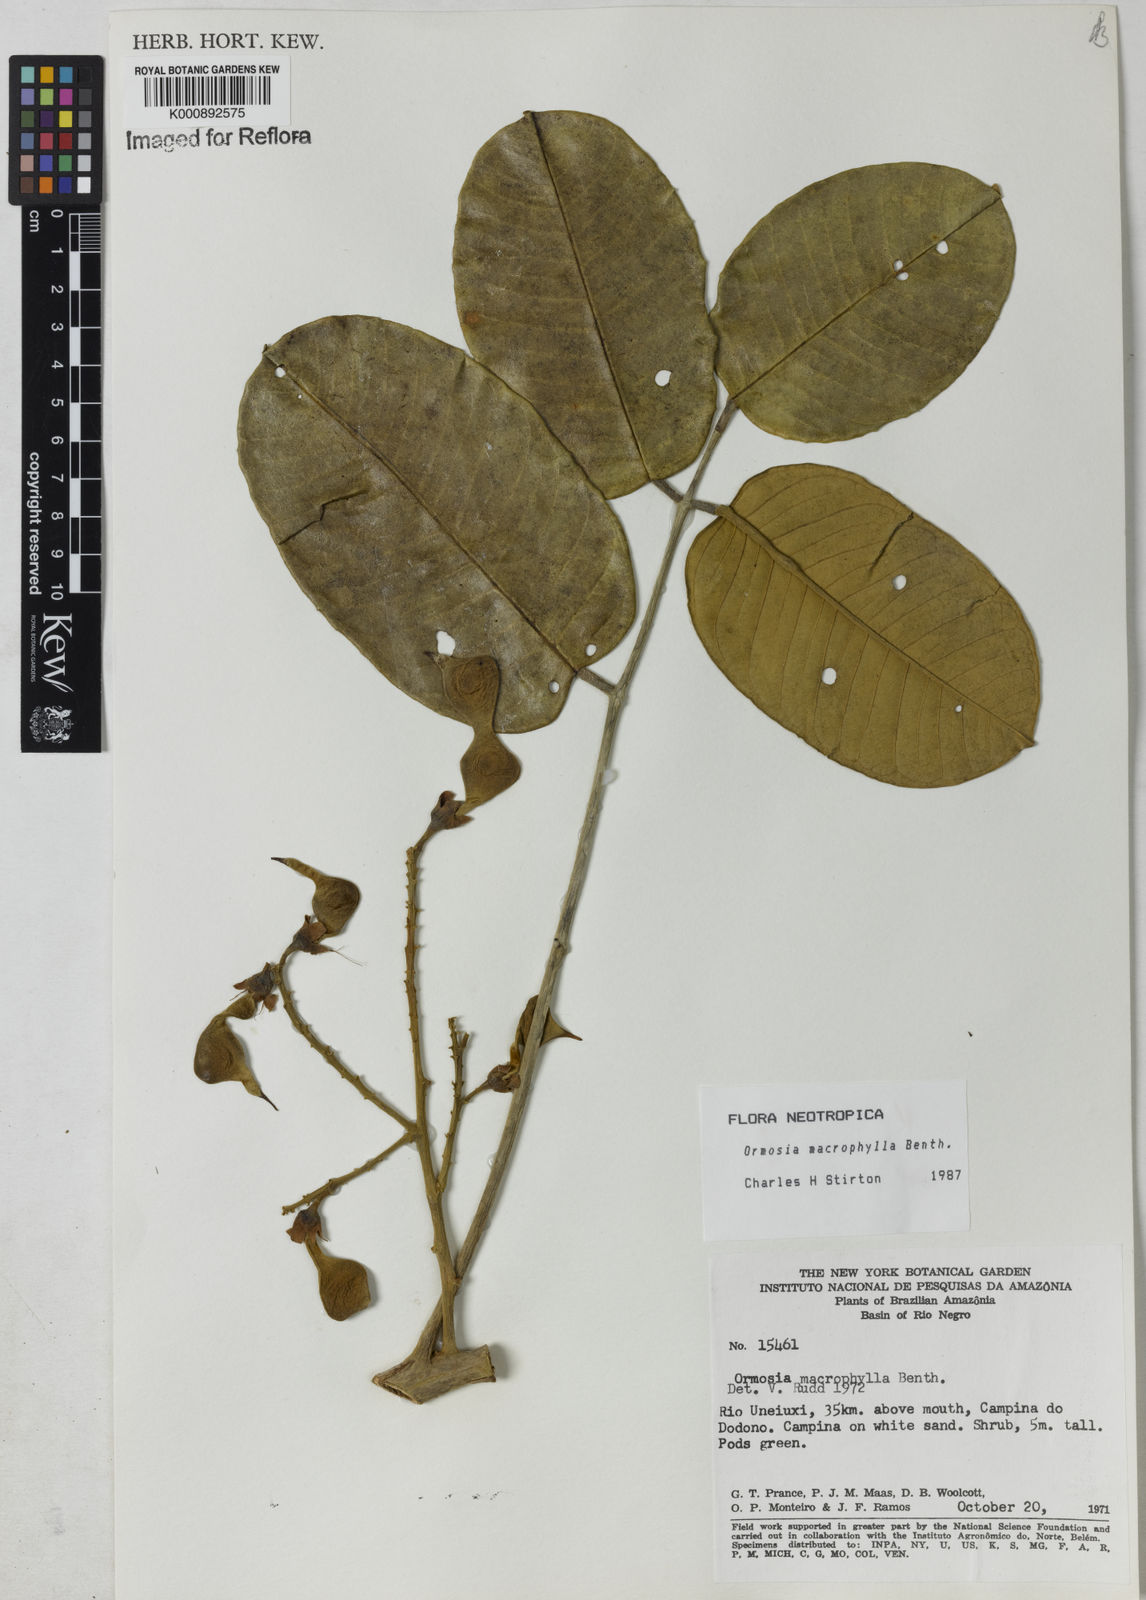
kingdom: Plantae
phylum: Tracheophyta
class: Magnoliopsida
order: Fabales
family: Fabaceae
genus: Ormosia
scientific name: Ormosia macrophylla
